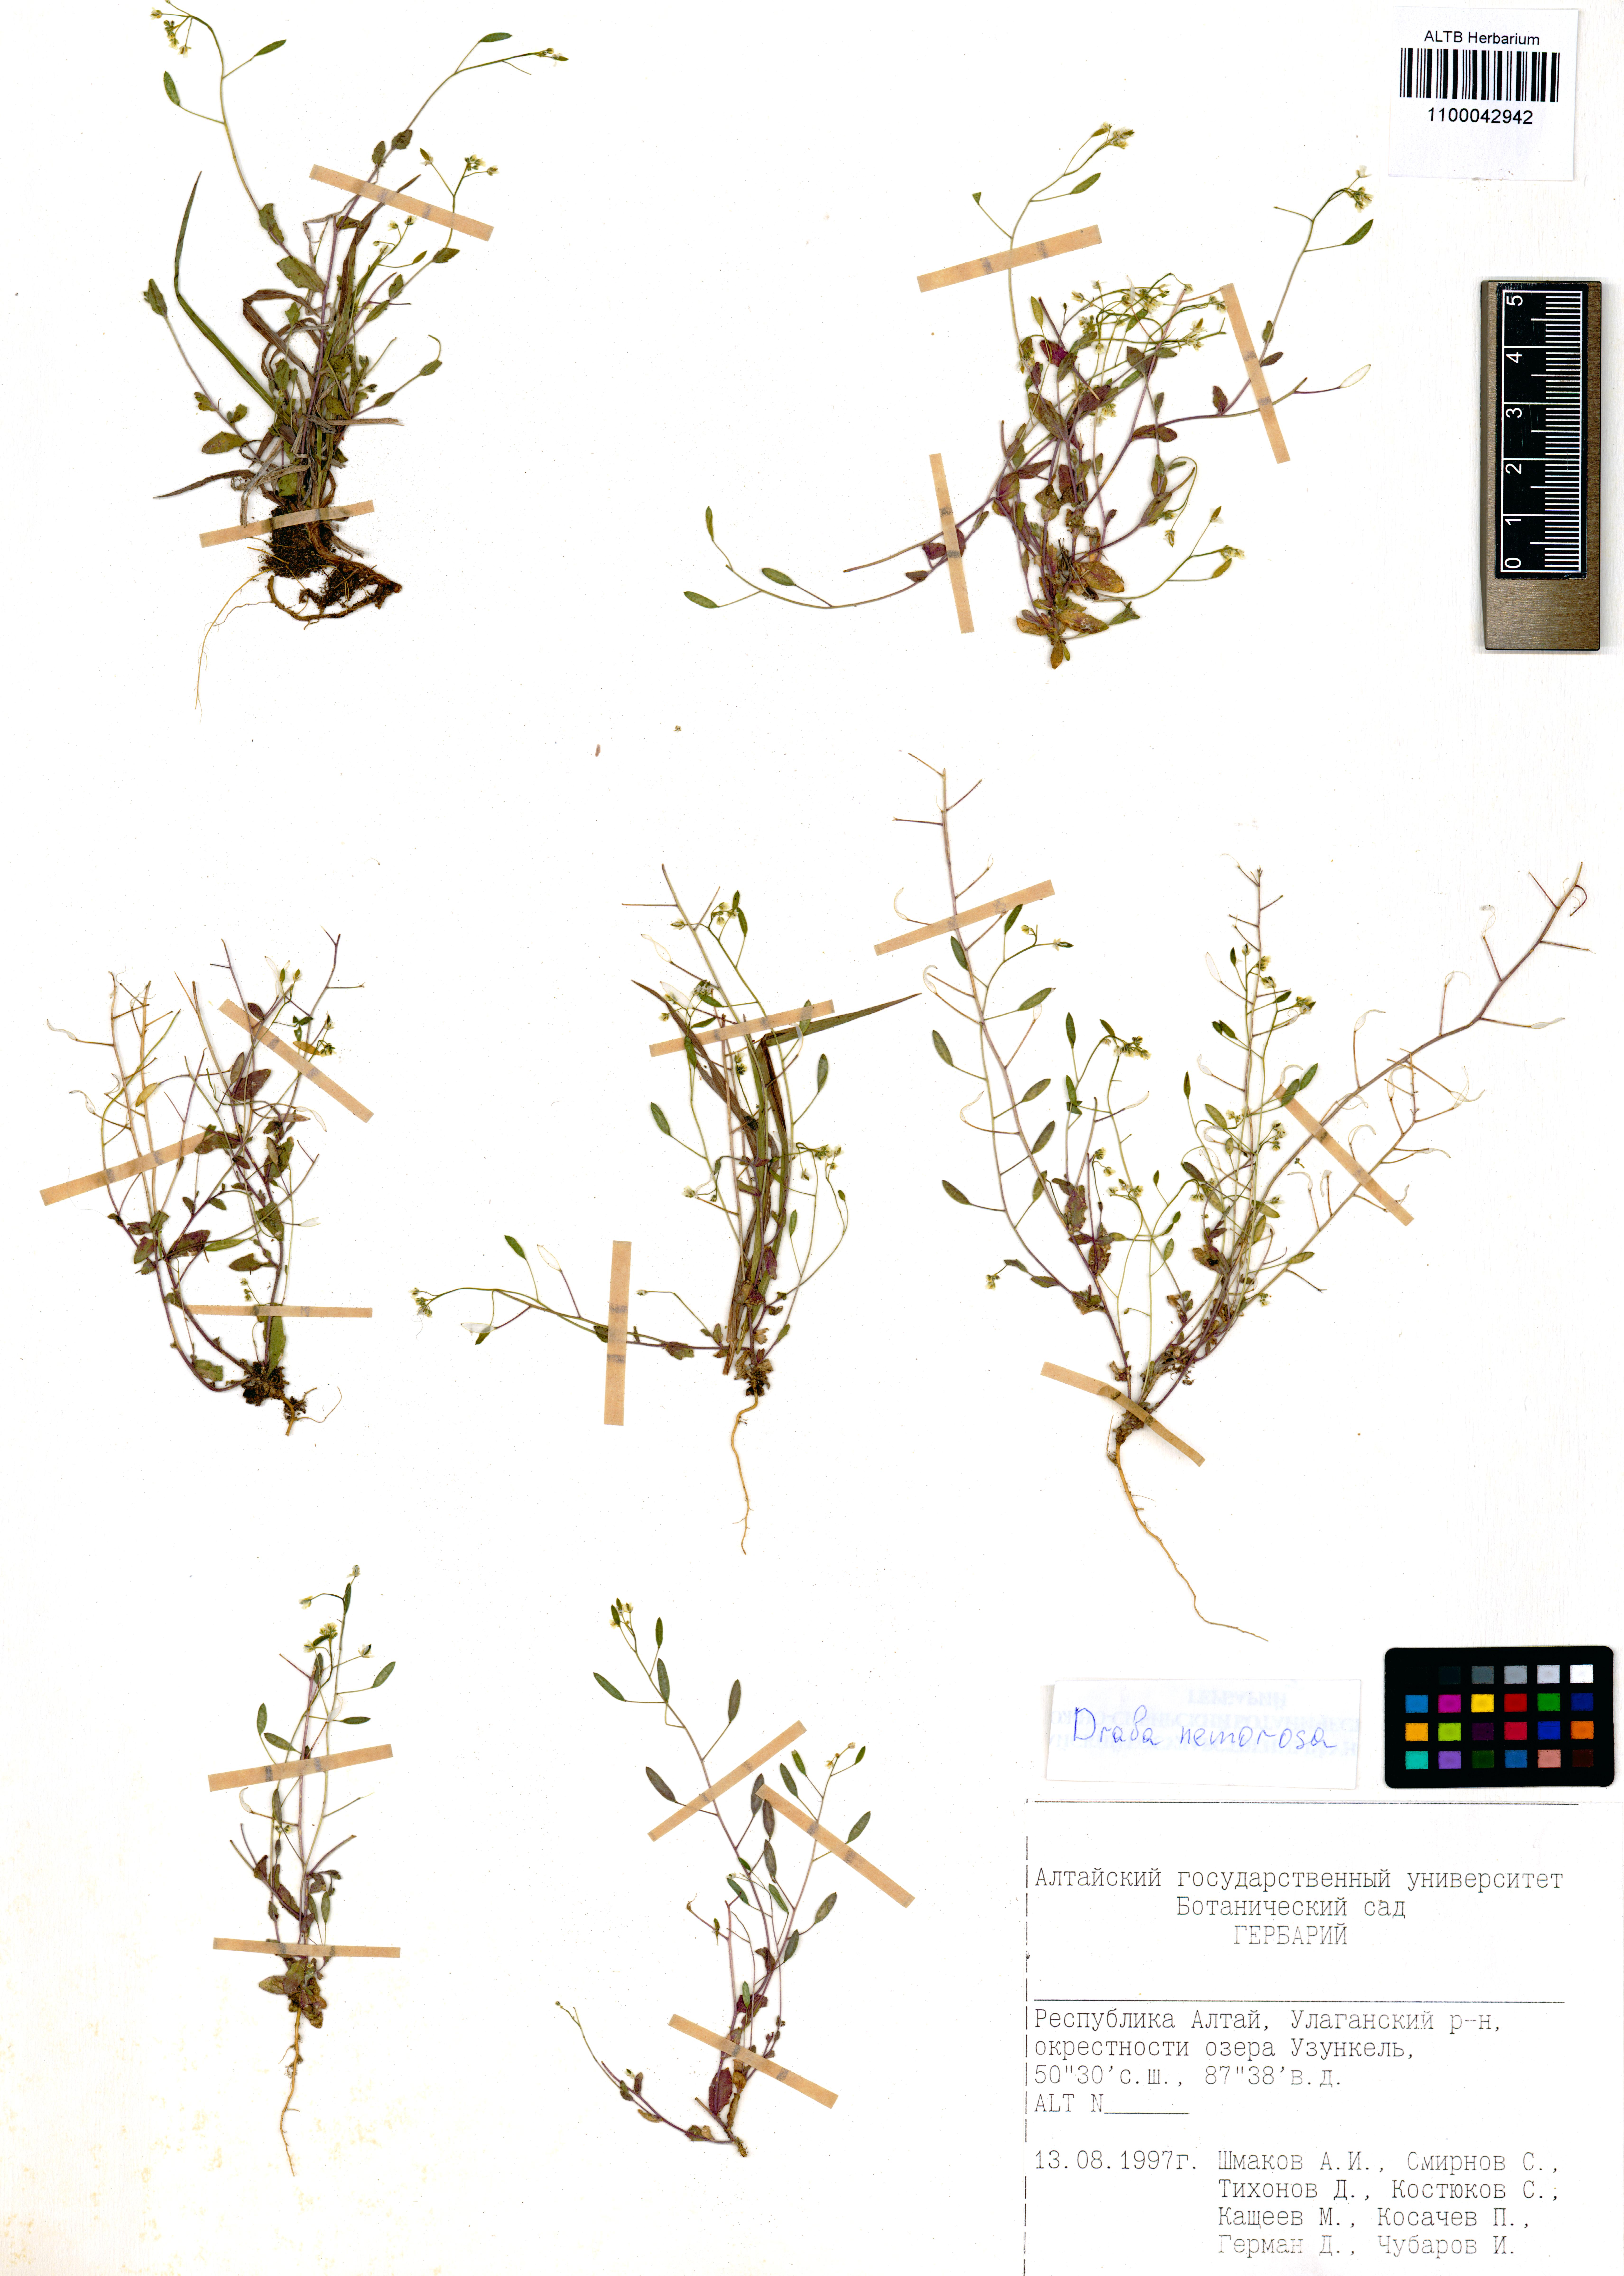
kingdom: Plantae
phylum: Tracheophyta
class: Magnoliopsida
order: Brassicales
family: Brassicaceae
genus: Draba
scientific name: Draba nemorosa
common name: Wood whitlow-grass
